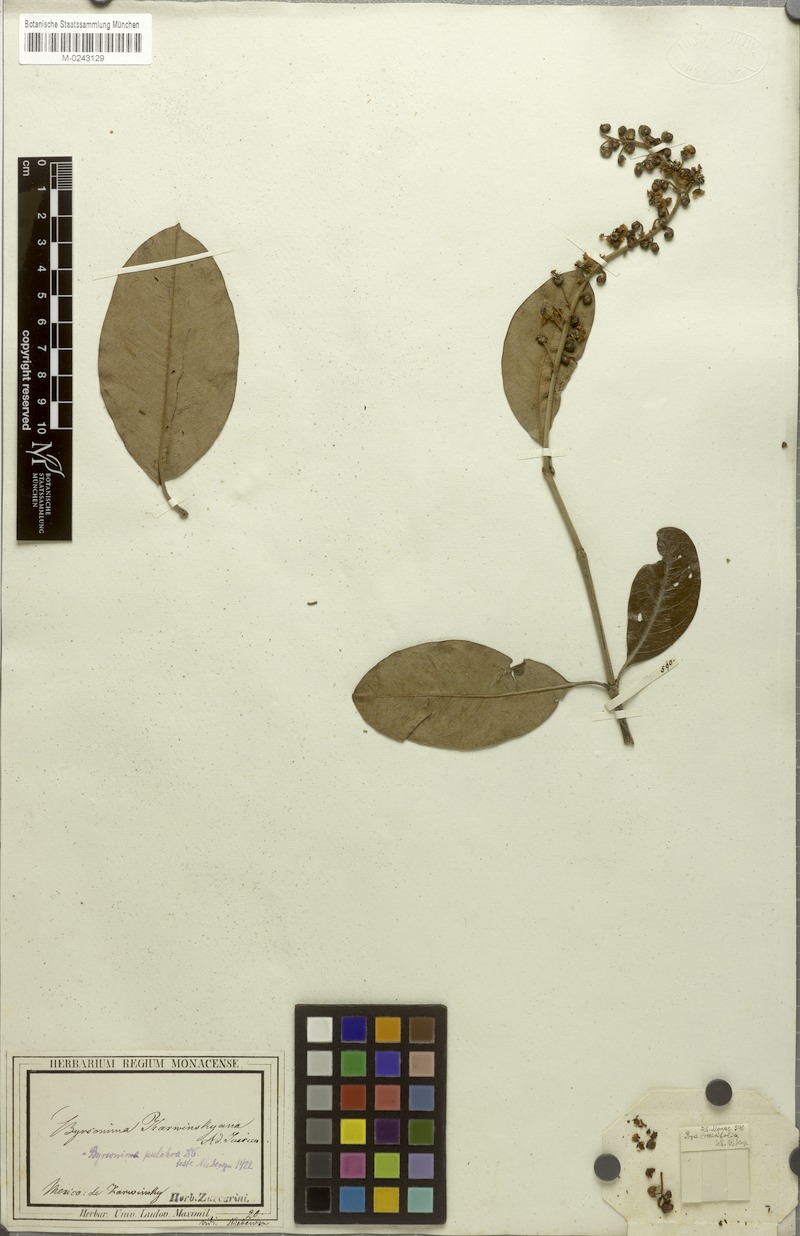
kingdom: Plantae
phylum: Tracheophyta
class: Magnoliopsida
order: Malpighiales
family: Malpighiaceae
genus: Byrsonima
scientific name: Byrsonima crassifolia
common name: Golden spoon
